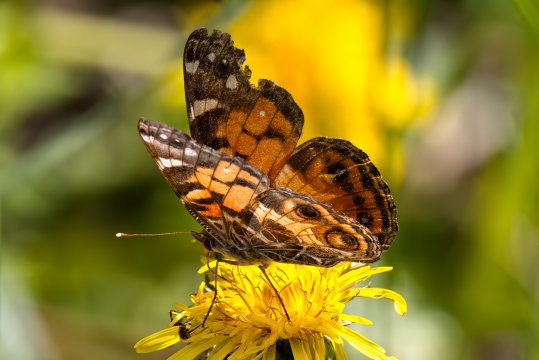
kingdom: Animalia
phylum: Arthropoda
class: Insecta
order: Lepidoptera
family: Nymphalidae
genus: Vanessa
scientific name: Vanessa virginiensis
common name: American Lady
